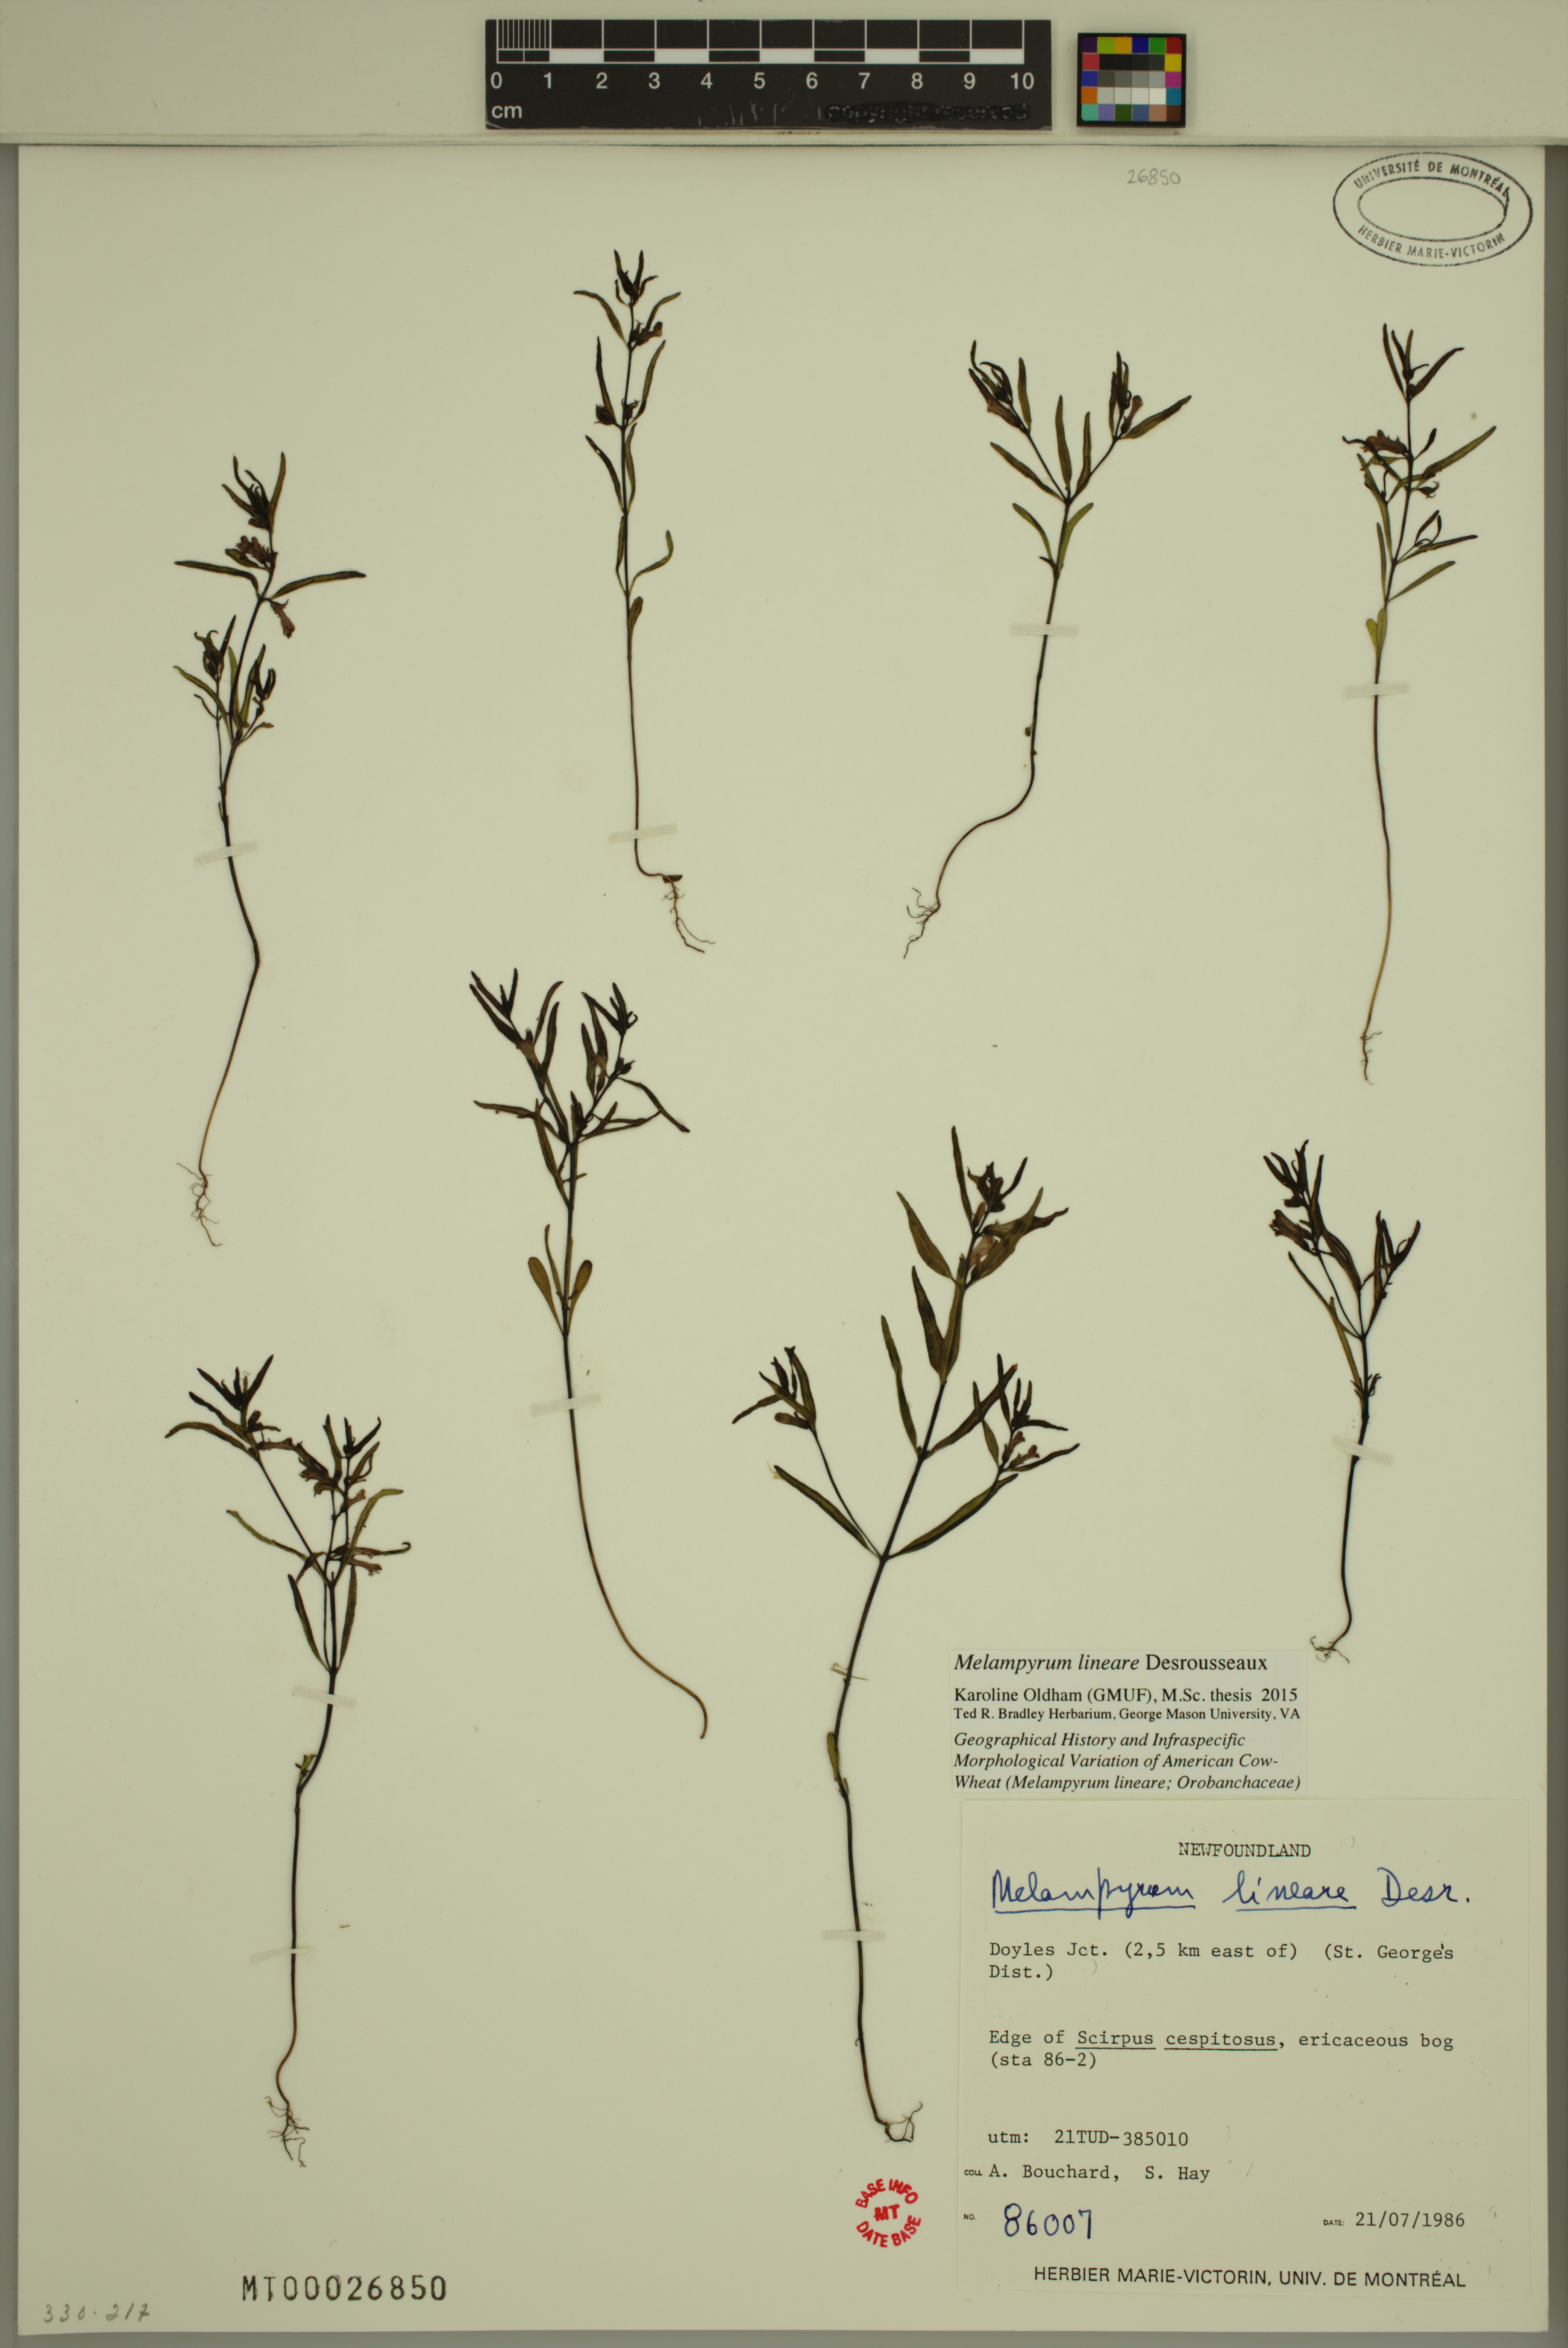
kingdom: Plantae
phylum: Tracheophyta
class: Magnoliopsida
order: Lamiales
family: Orobanchaceae
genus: Melampyrum
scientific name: Melampyrum lineare
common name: American cow-wheat
